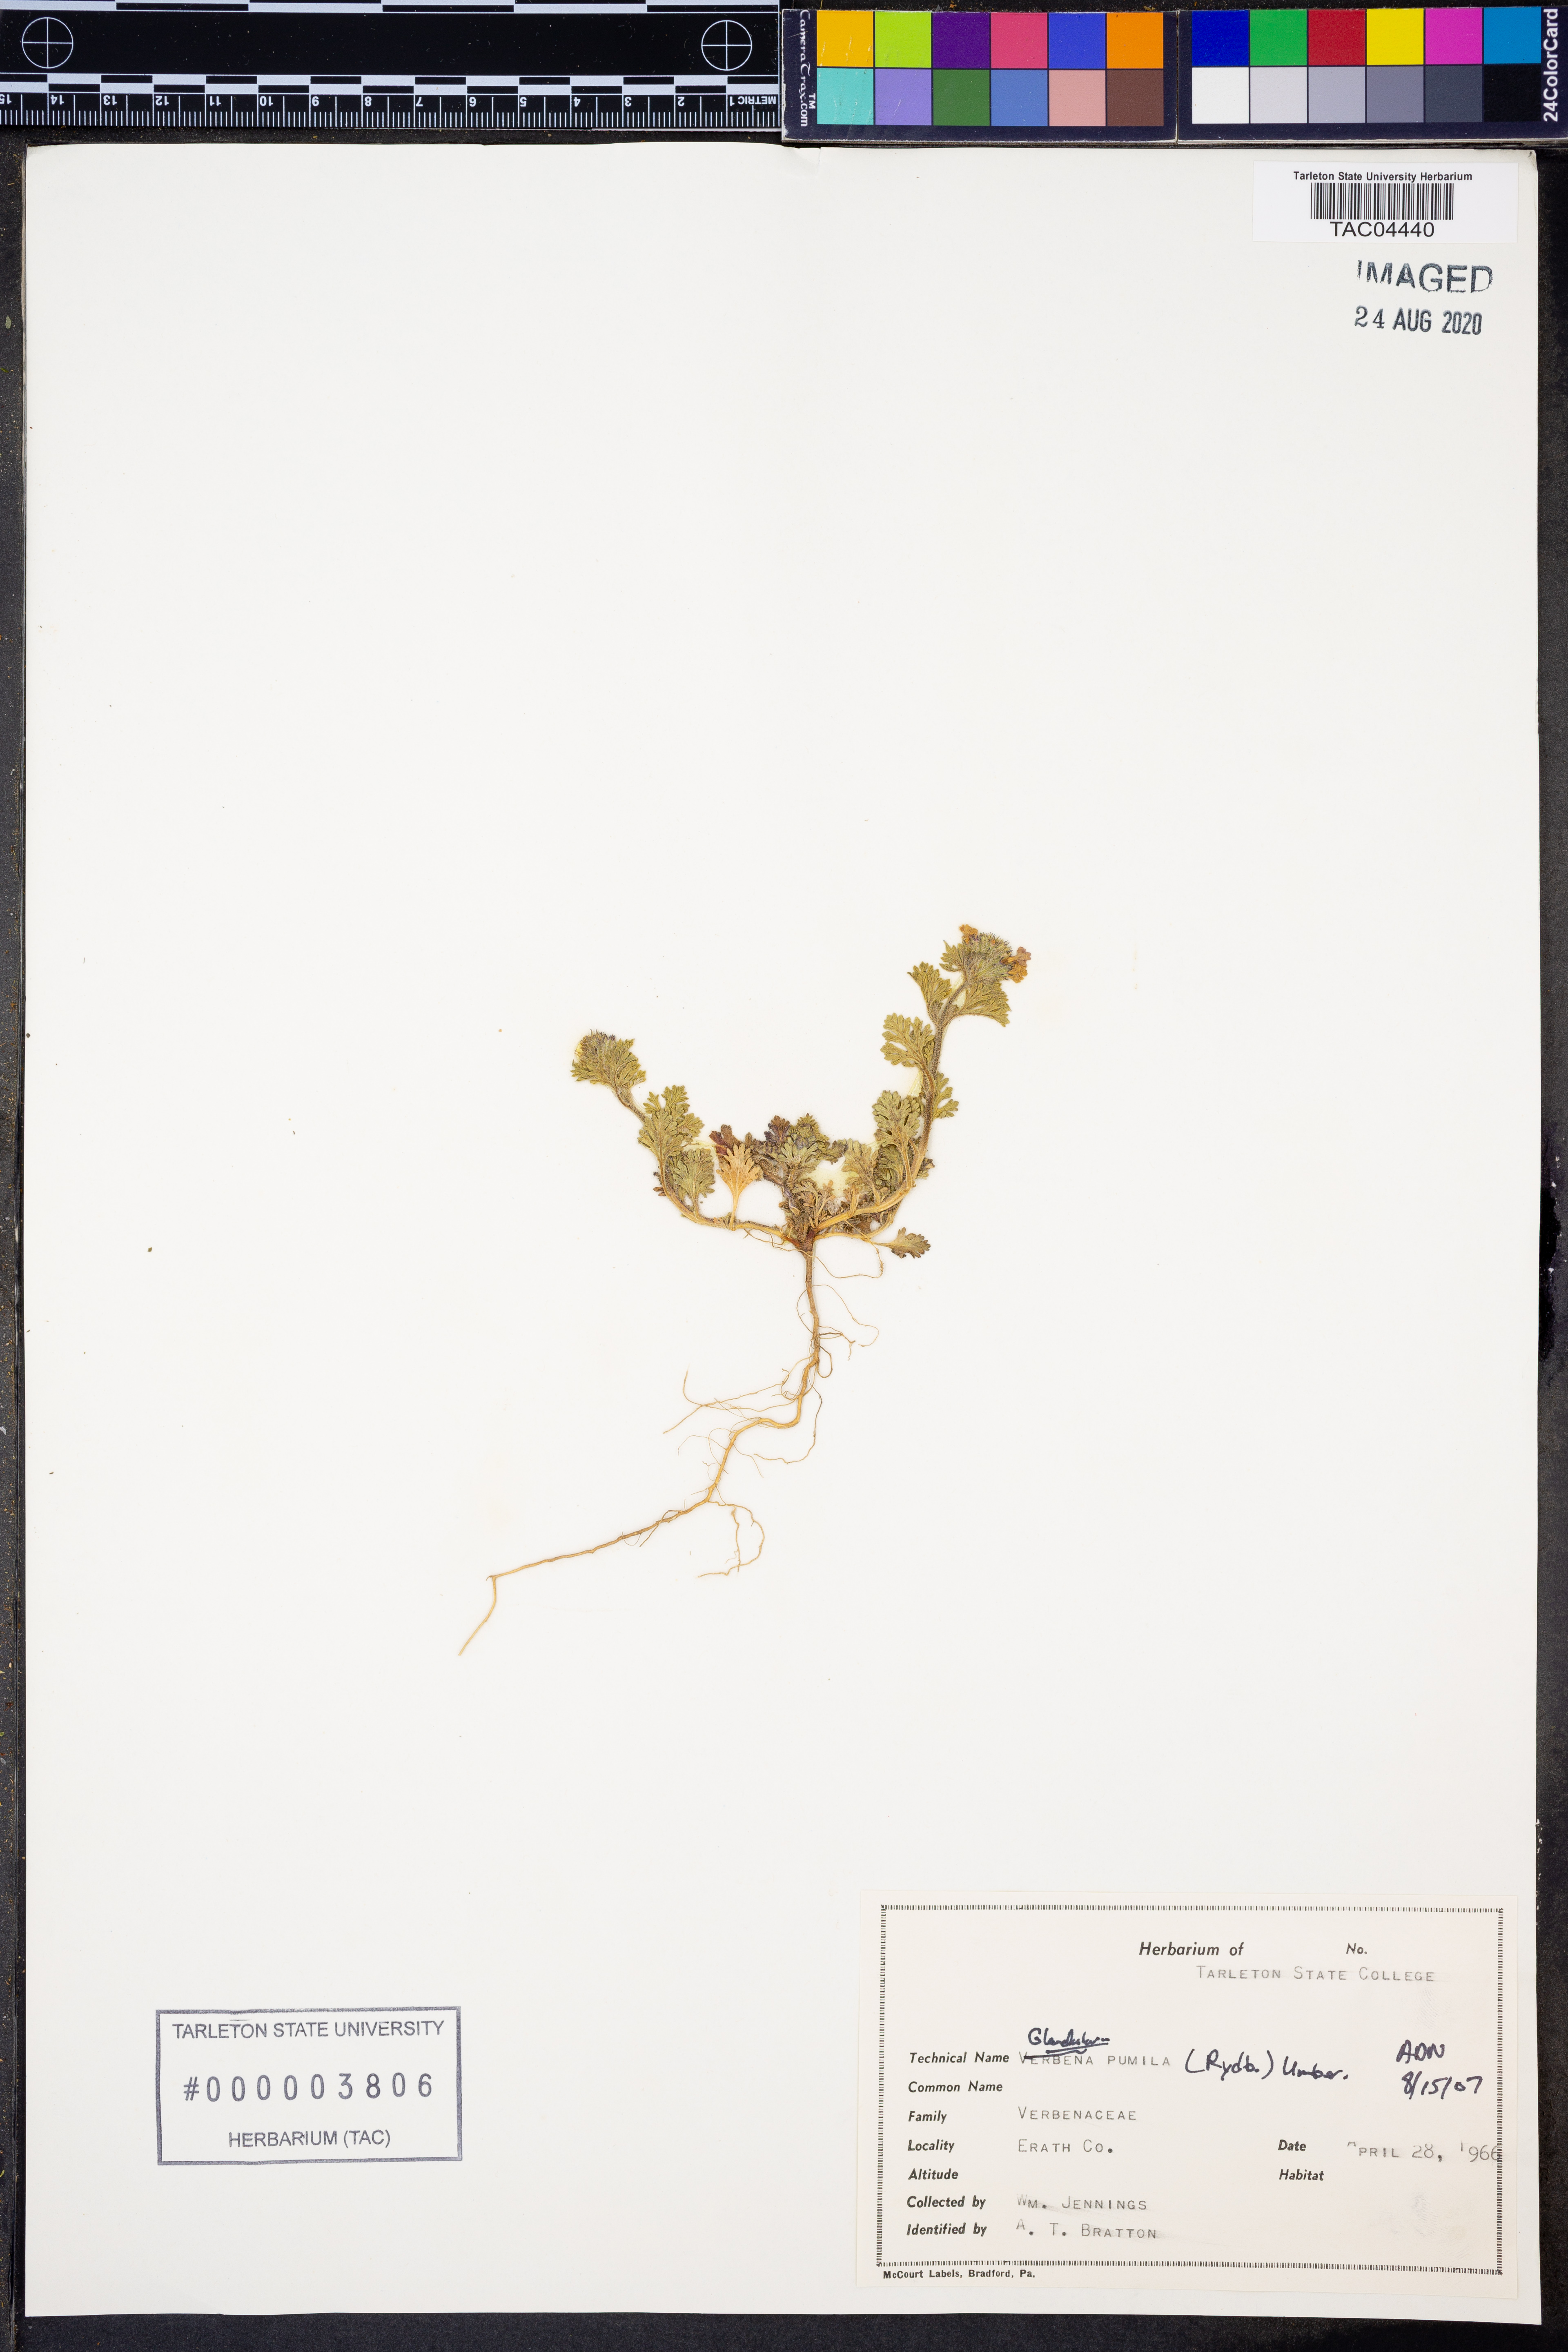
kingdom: Plantae
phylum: Tracheophyta
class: Magnoliopsida
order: Lamiales
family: Verbenaceae
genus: Verbena
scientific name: Verbena pumila
